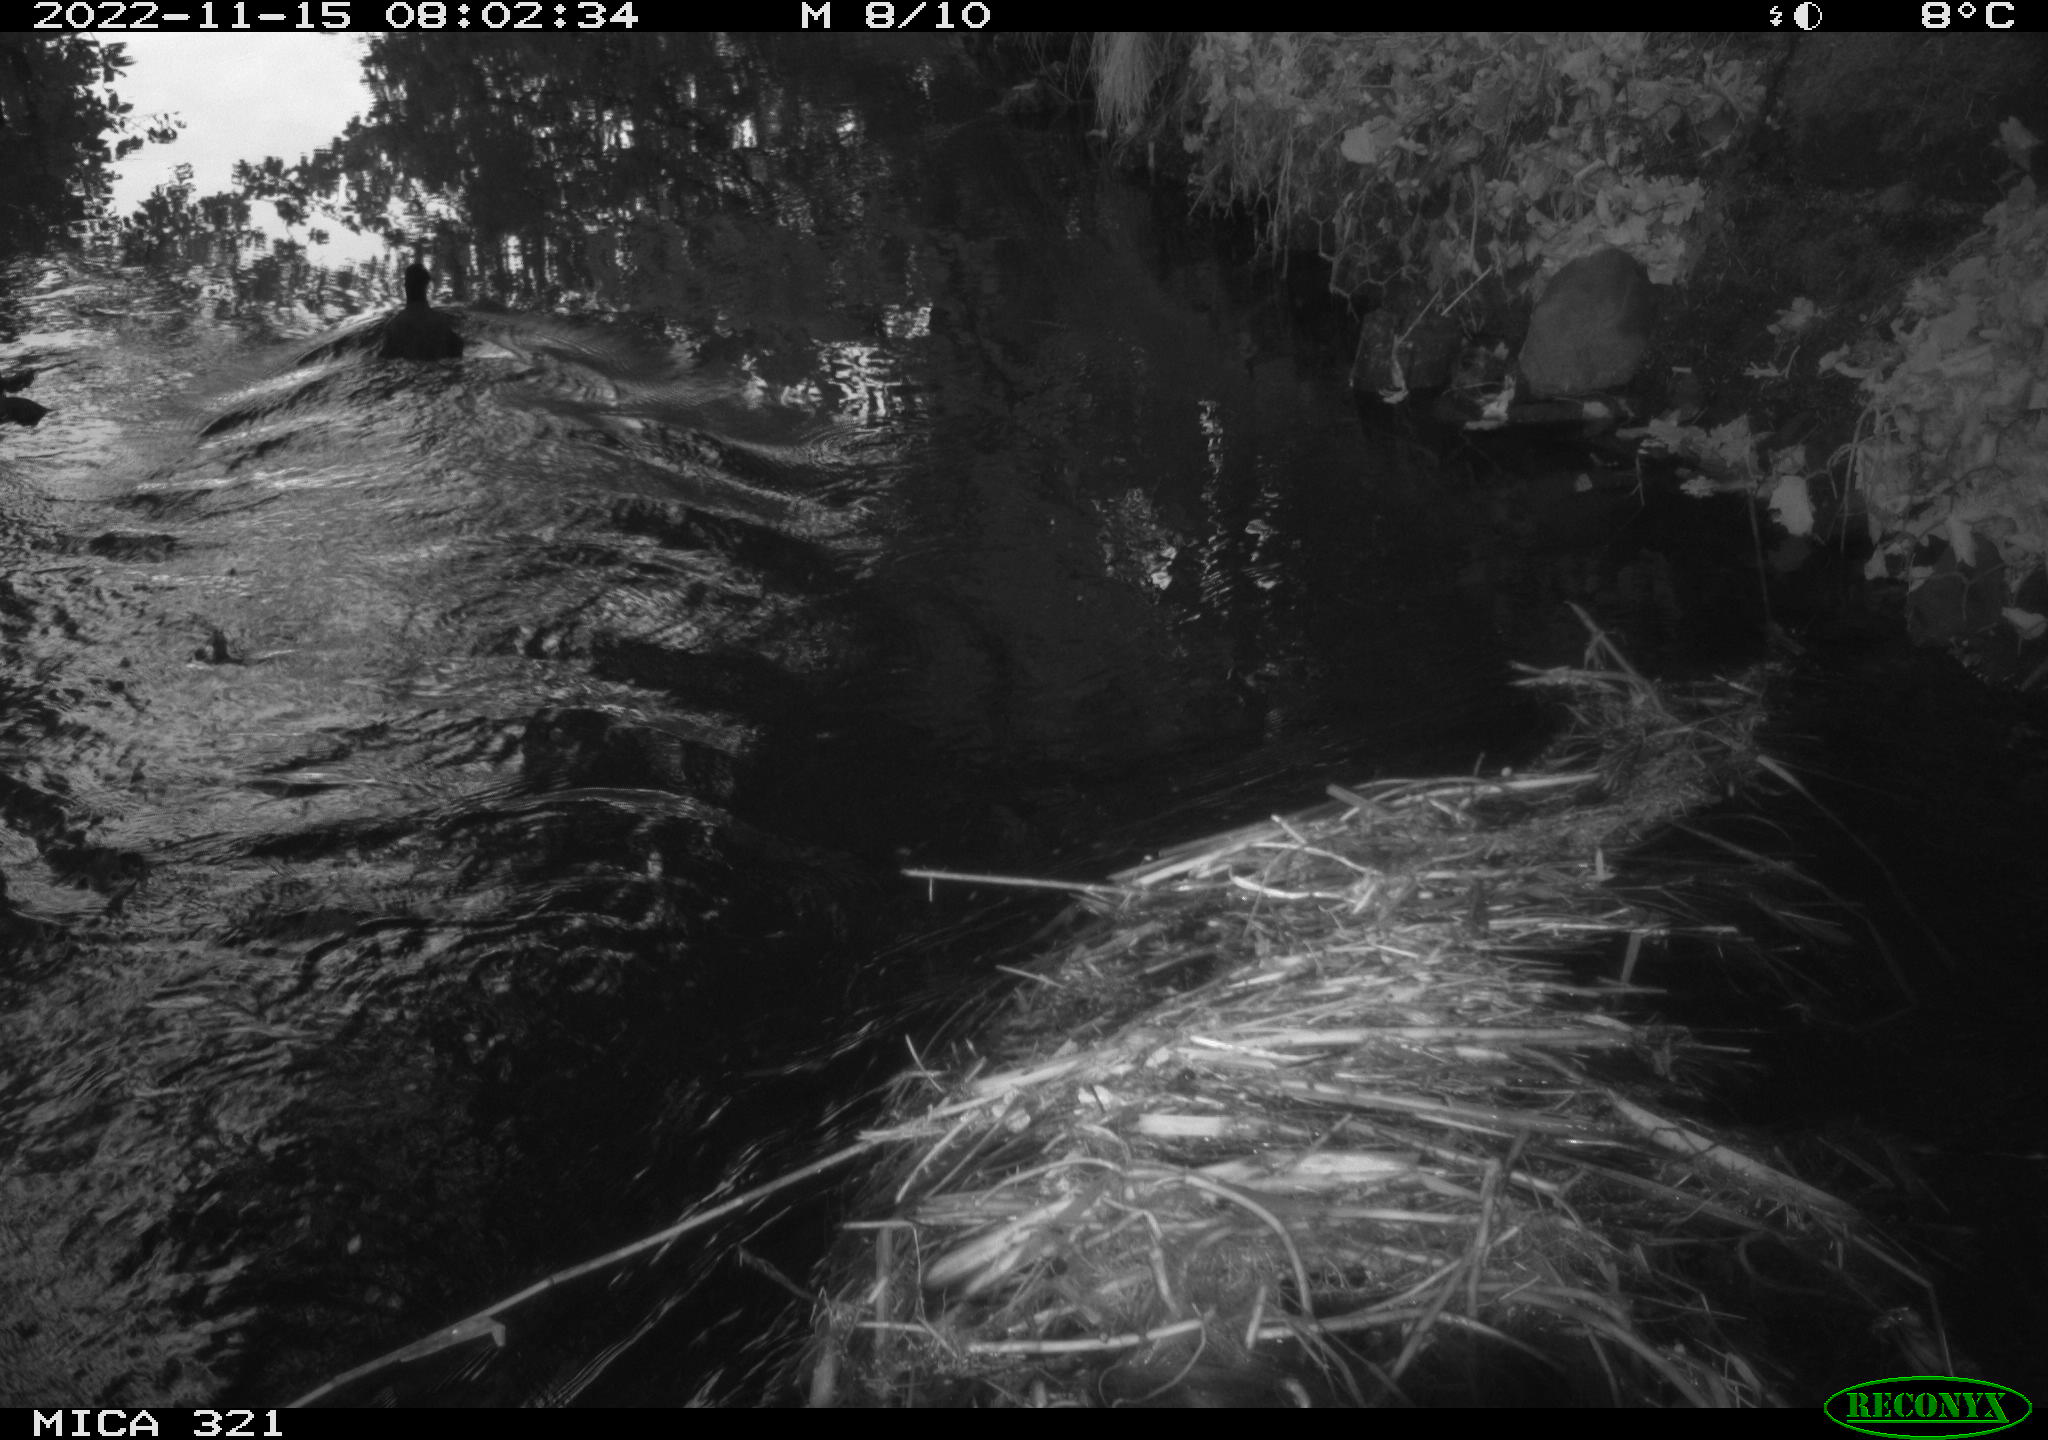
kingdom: Animalia
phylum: Chordata
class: Aves
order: Anseriformes
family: Anatidae
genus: Anas
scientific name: Anas
